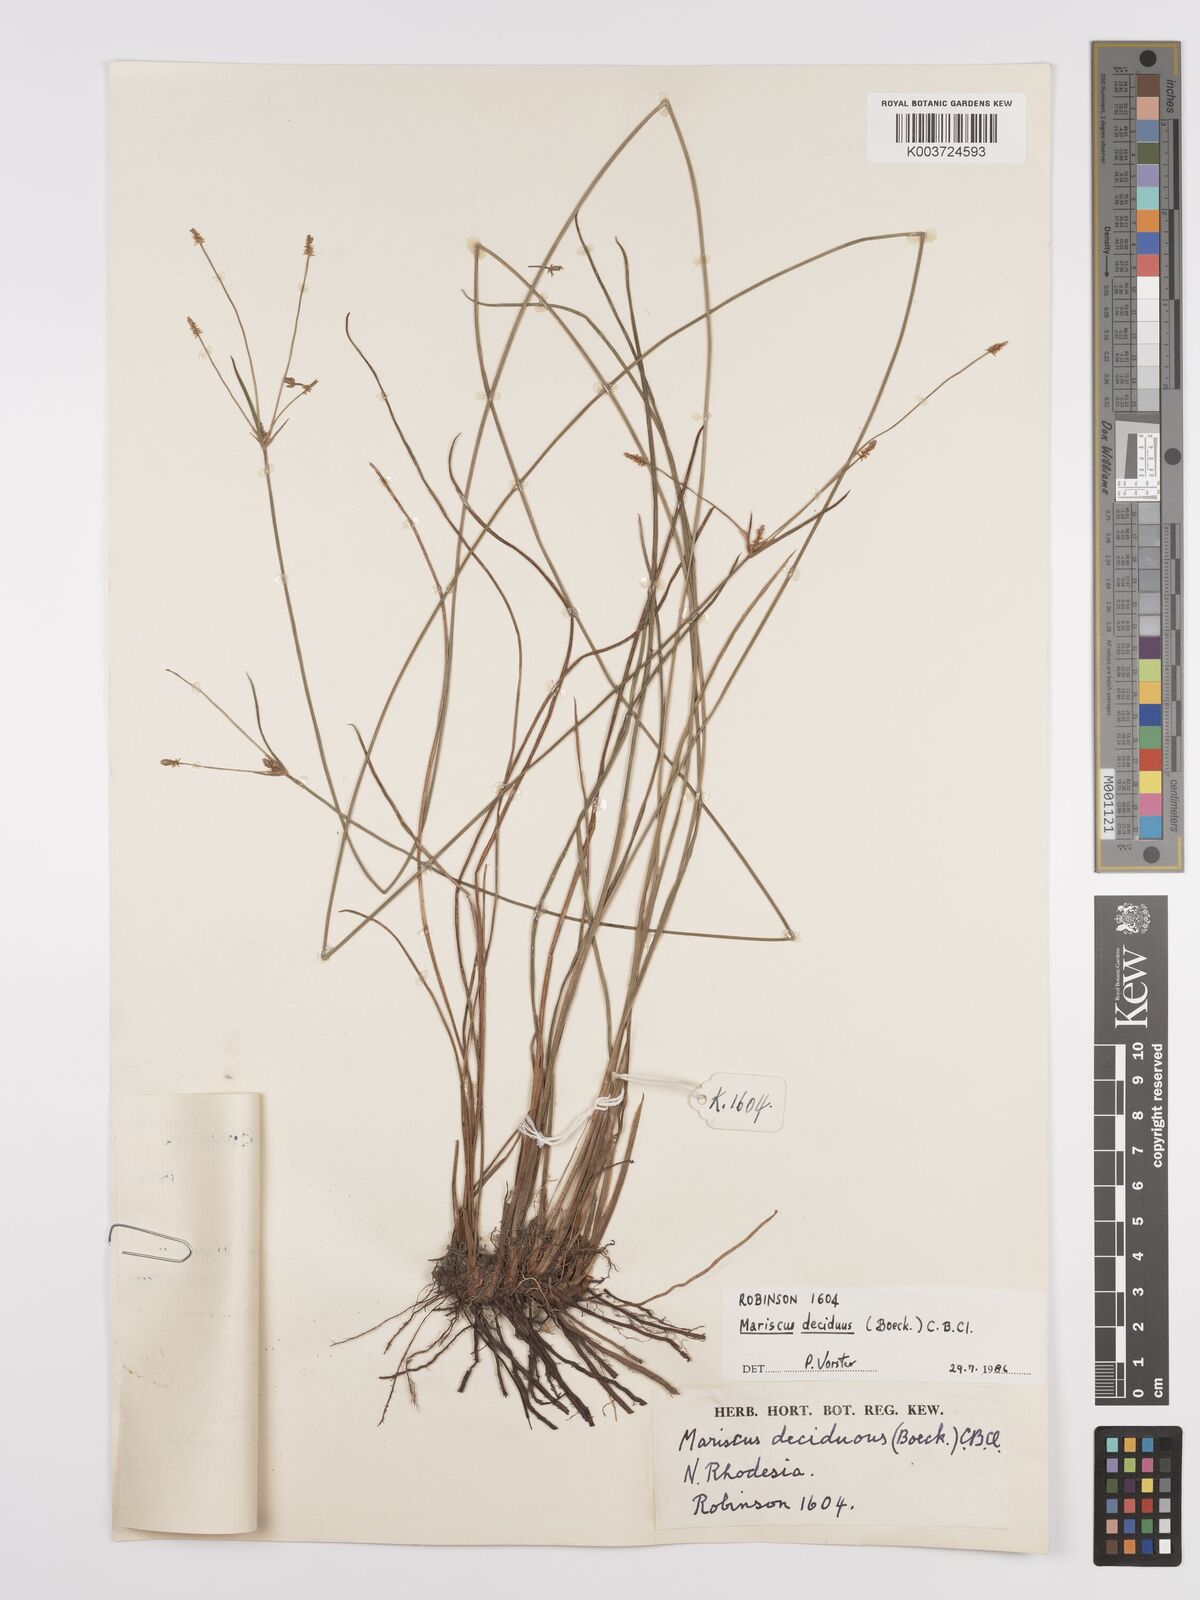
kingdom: Plantae
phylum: Tracheophyta
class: Liliopsida
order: Poales
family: Cyperaceae
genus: Cyperus
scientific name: Cyperus deciduus
